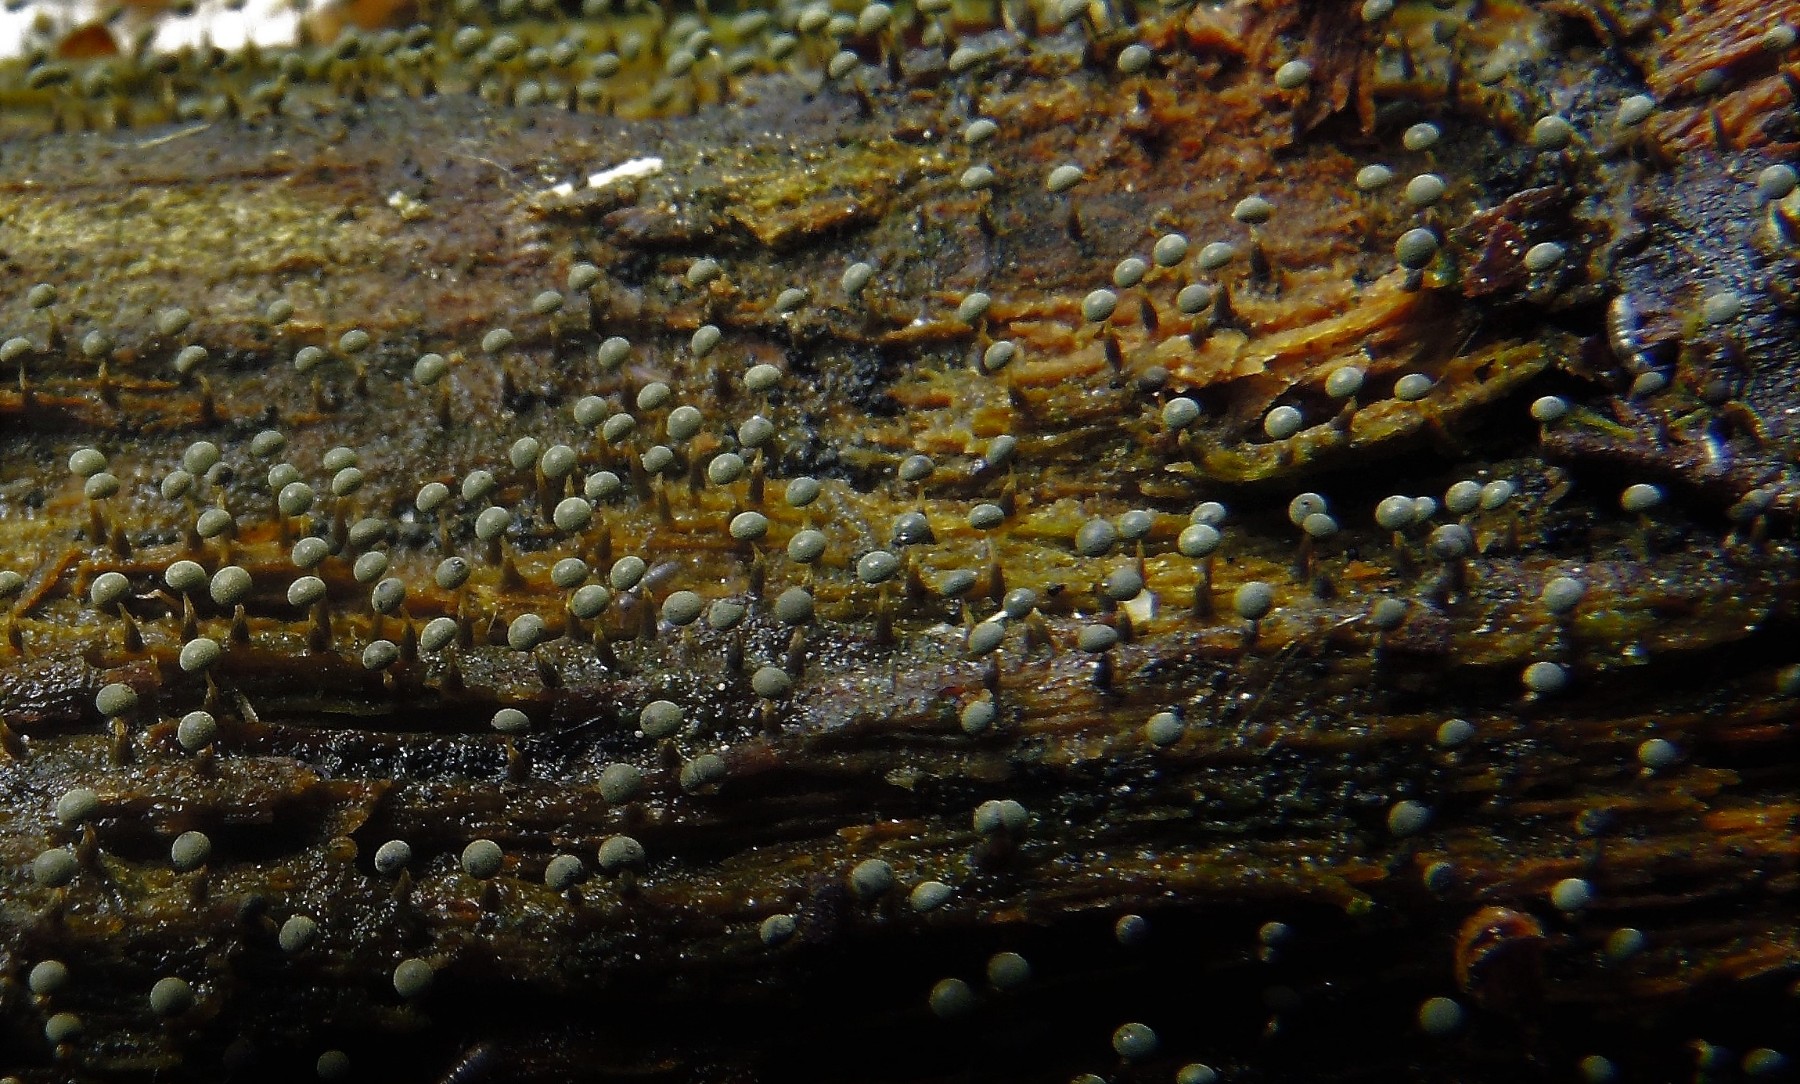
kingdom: Protozoa
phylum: Mycetozoa
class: Myxomycetes
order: Physarales
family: Physaraceae
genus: Physarum
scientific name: Physarum album
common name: nikkende støvknop
